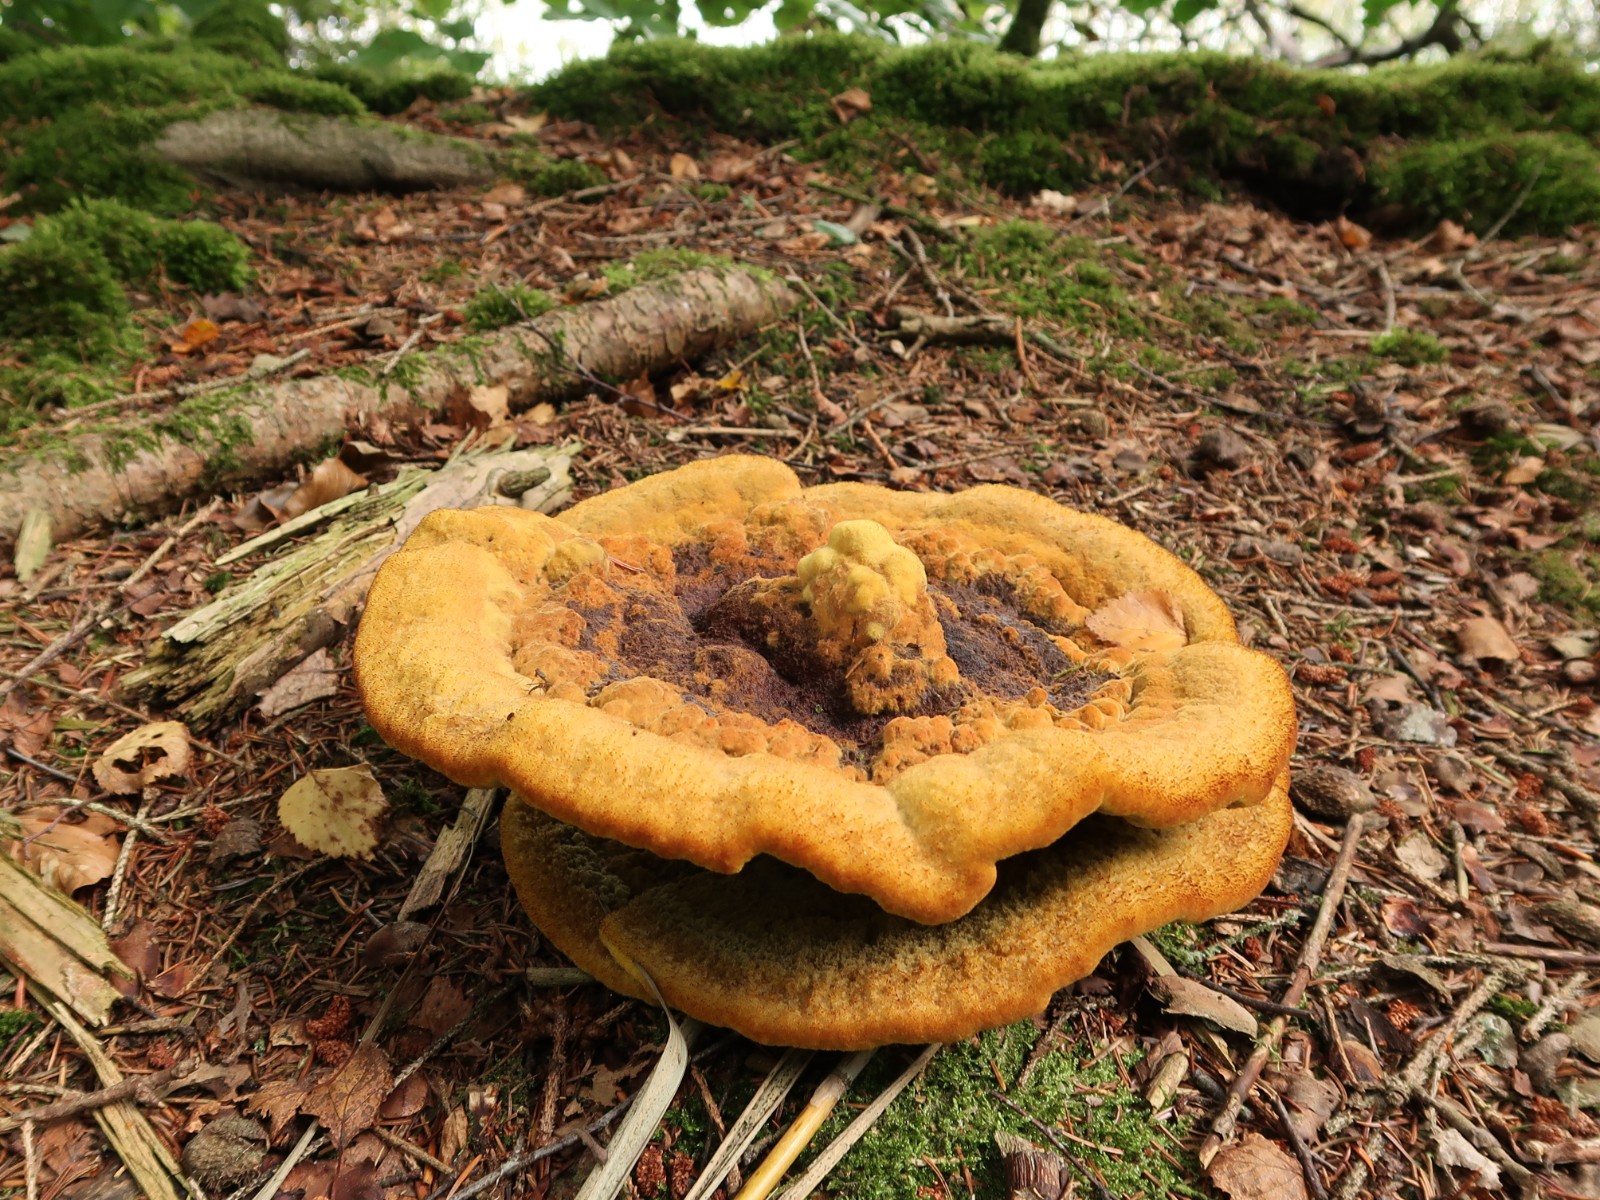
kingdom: Fungi
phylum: Basidiomycota
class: Agaricomycetes
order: Polyporales
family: Laetiporaceae
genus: Phaeolus
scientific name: Phaeolus schweinitzii
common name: brunporesvamp
